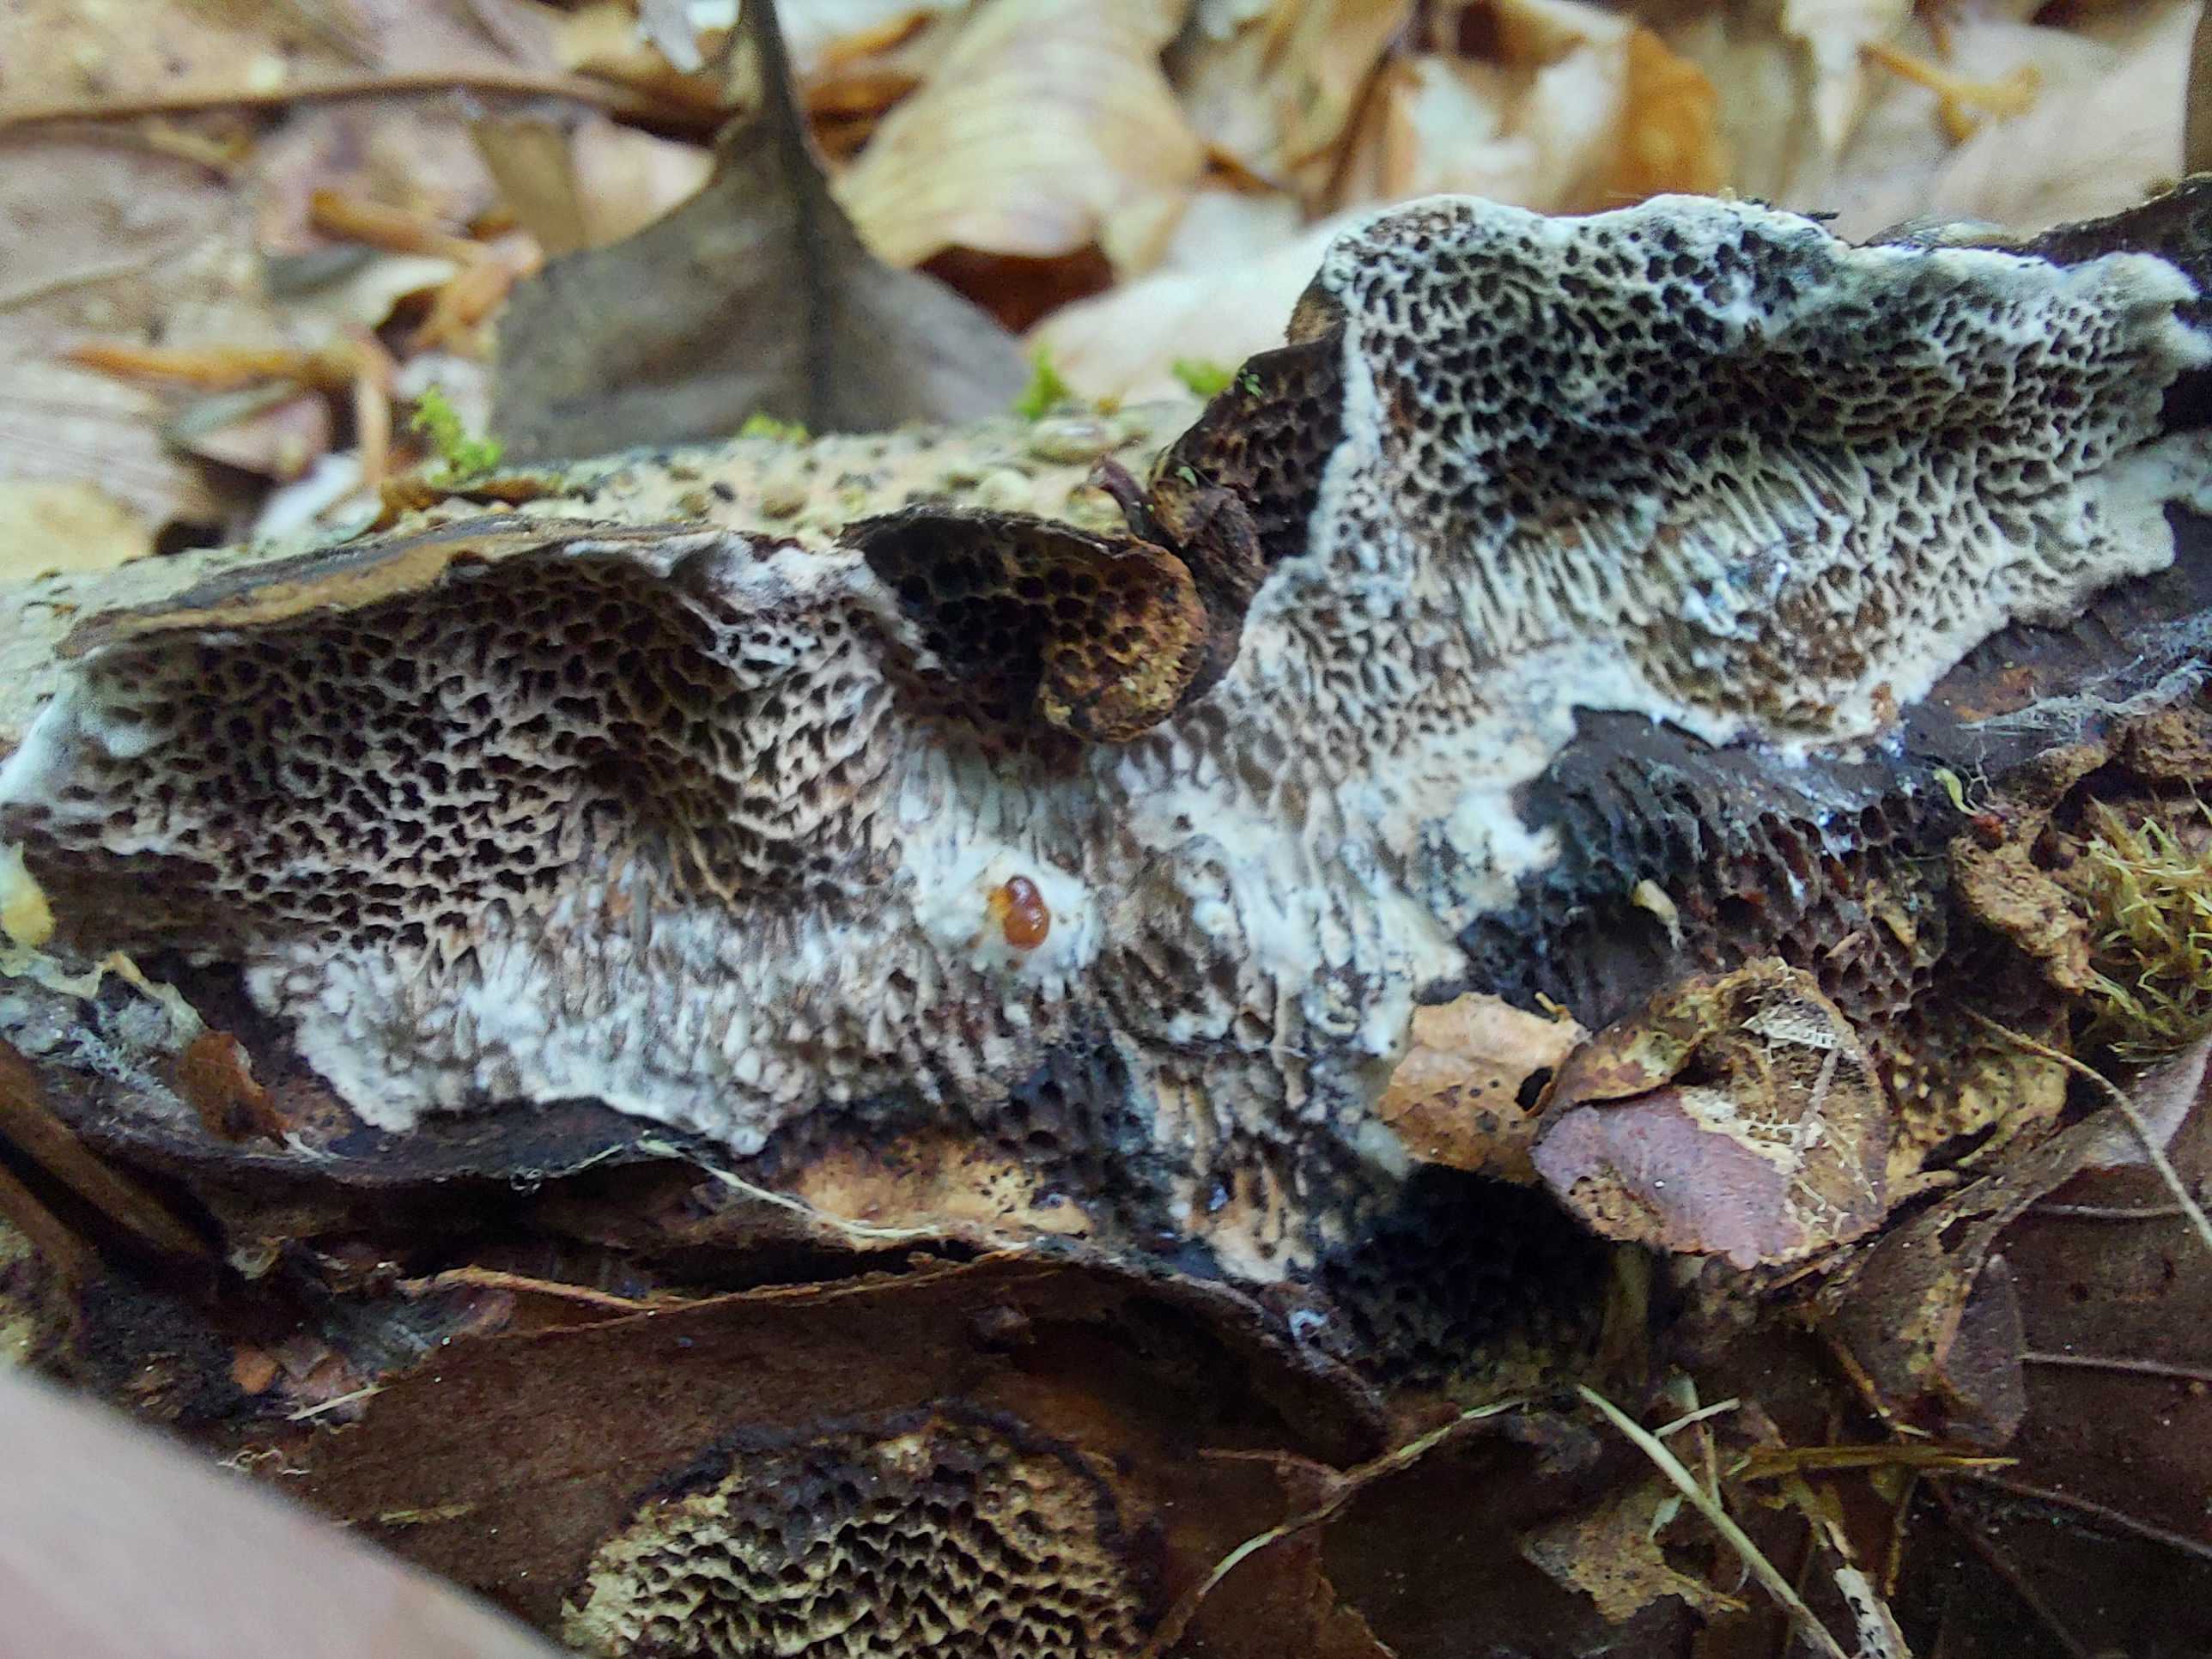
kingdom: Fungi
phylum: Basidiomycota
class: Agaricomycetes
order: Polyporales
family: Polyporaceae
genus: Podofomes
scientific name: Podofomes mollis
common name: blød begporesvamp
